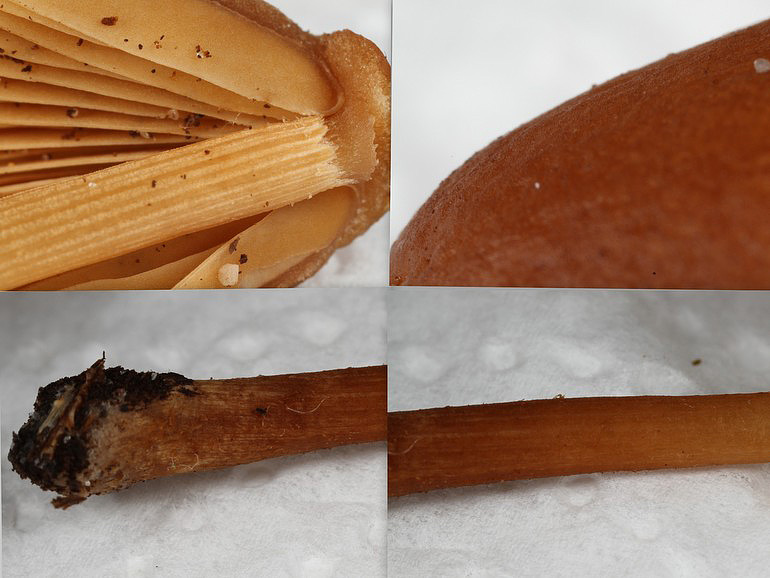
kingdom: Fungi
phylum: Basidiomycota
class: Agaricomycetes
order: Agaricales
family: Bolbitiaceae
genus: Conocybe
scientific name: Conocybe semiglobata
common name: halvkugleformet keglehat
